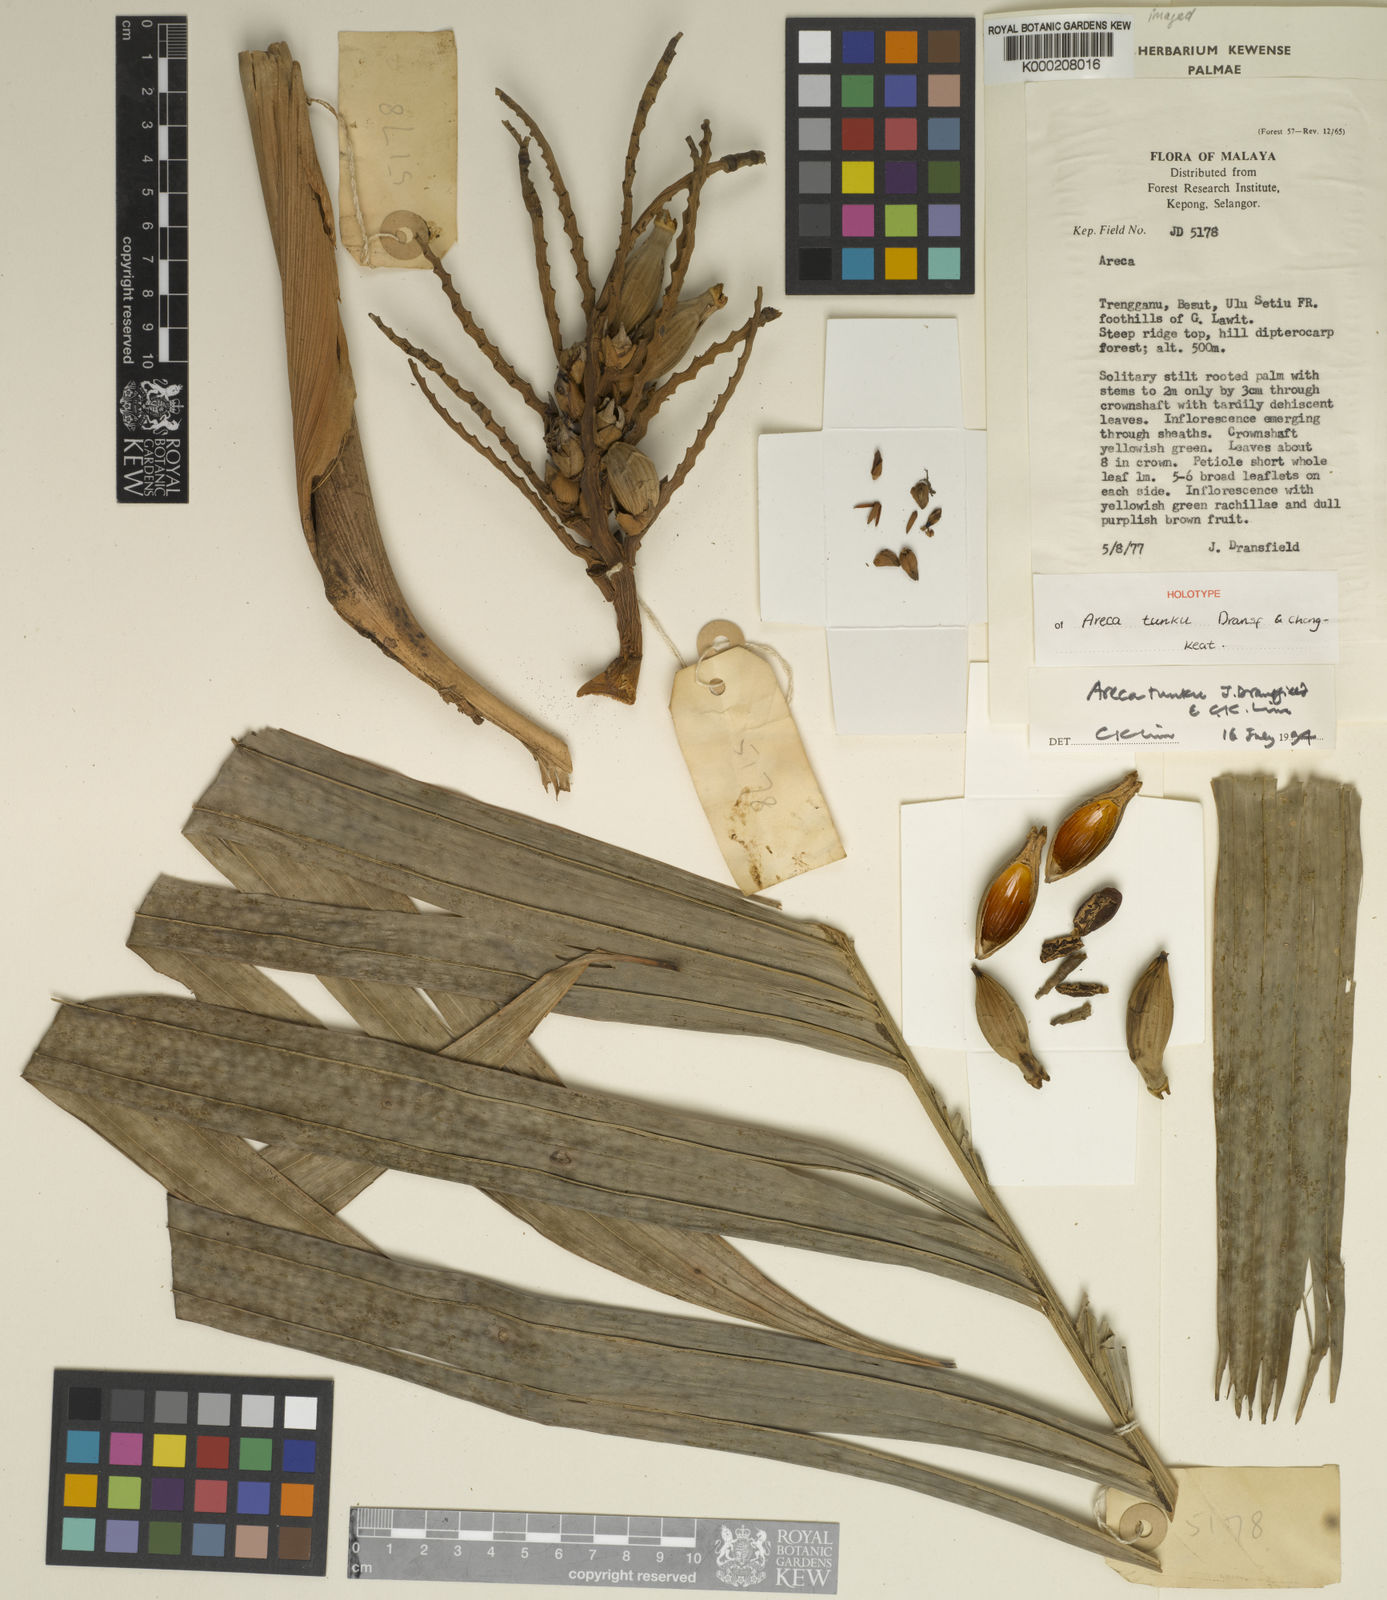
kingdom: Plantae
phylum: Tracheophyta
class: Liliopsida
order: Arecales
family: Arecaceae
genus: Areca
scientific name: Areca tunku
